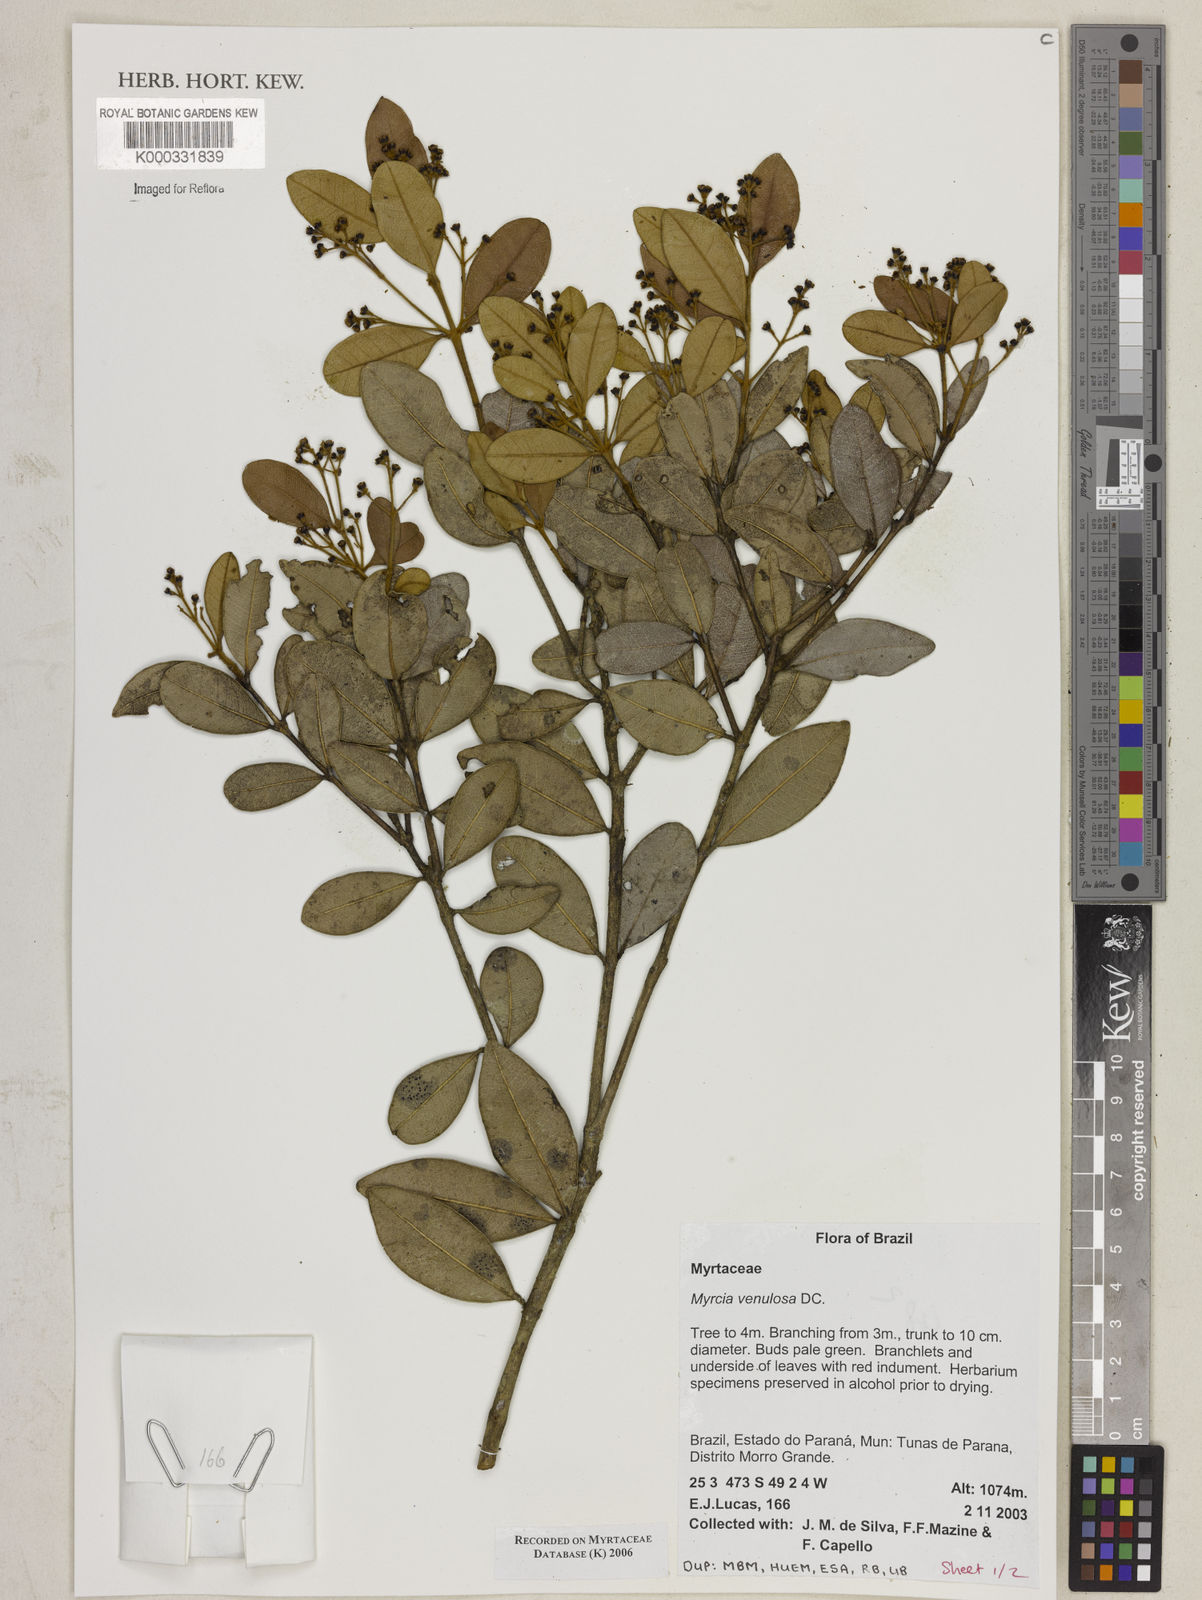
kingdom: Plantae
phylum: Tracheophyta
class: Magnoliopsida
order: Myrtales
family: Myrtaceae
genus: Myrcia
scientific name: Myrcia venulosa
